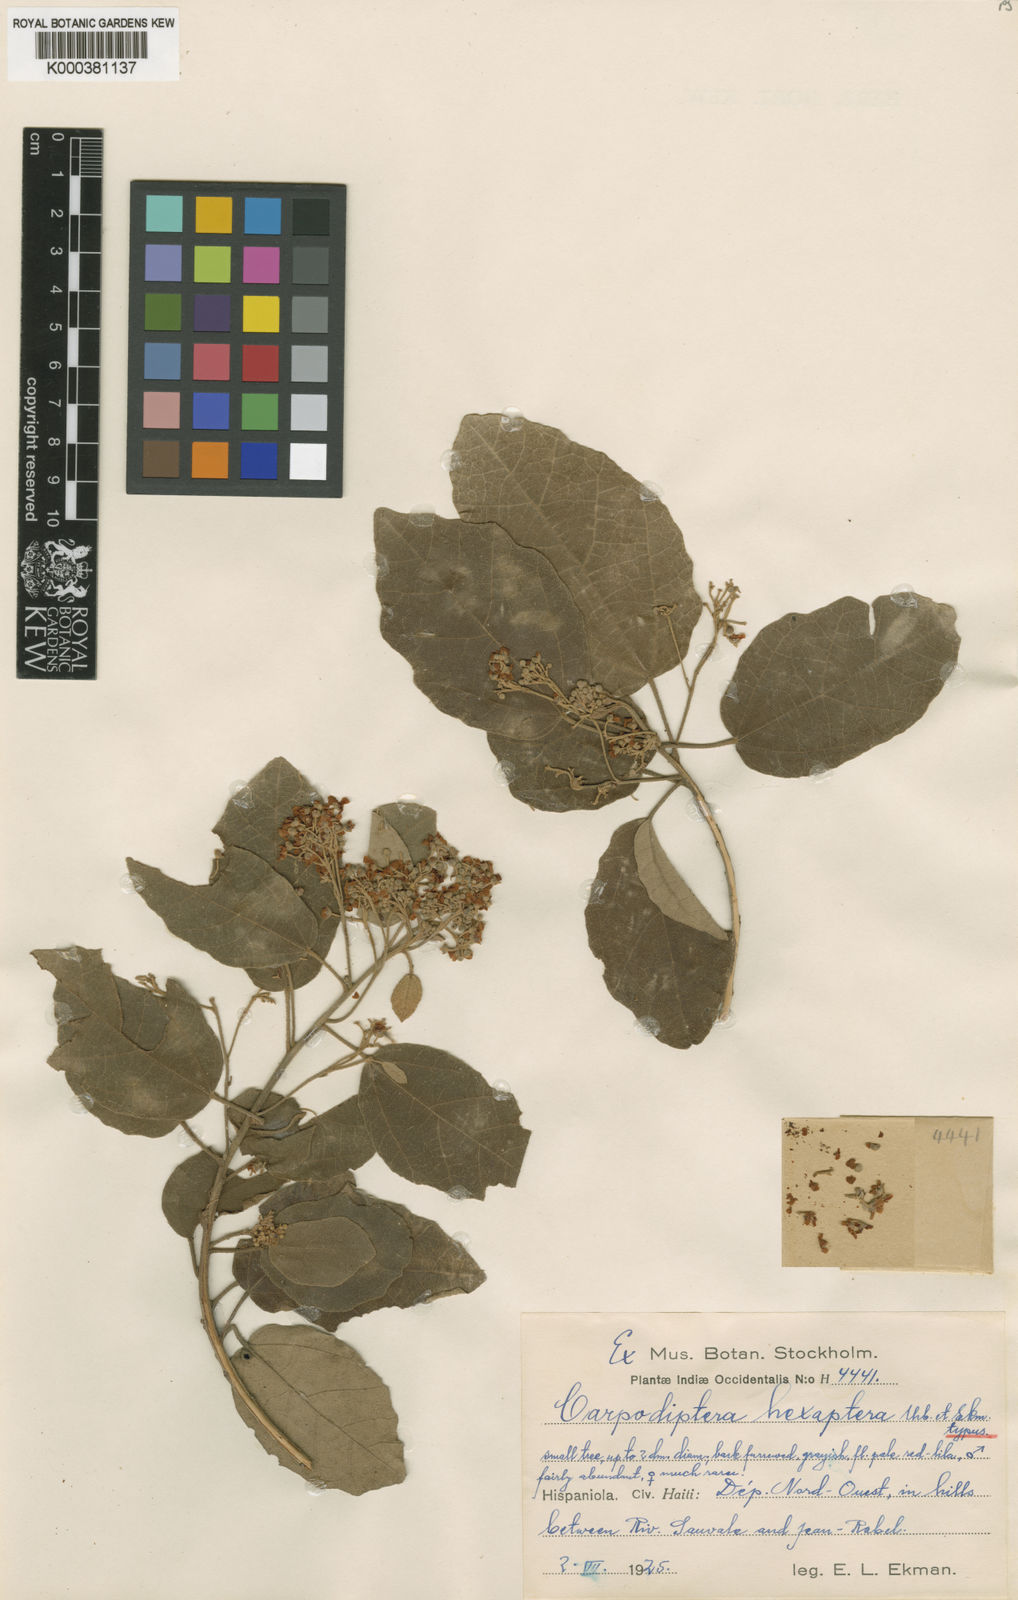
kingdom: Plantae
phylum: Tracheophyta
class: Magnoliopsida
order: Malvales
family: Malvaceae
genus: Berrya
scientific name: Berrya hexaptera
